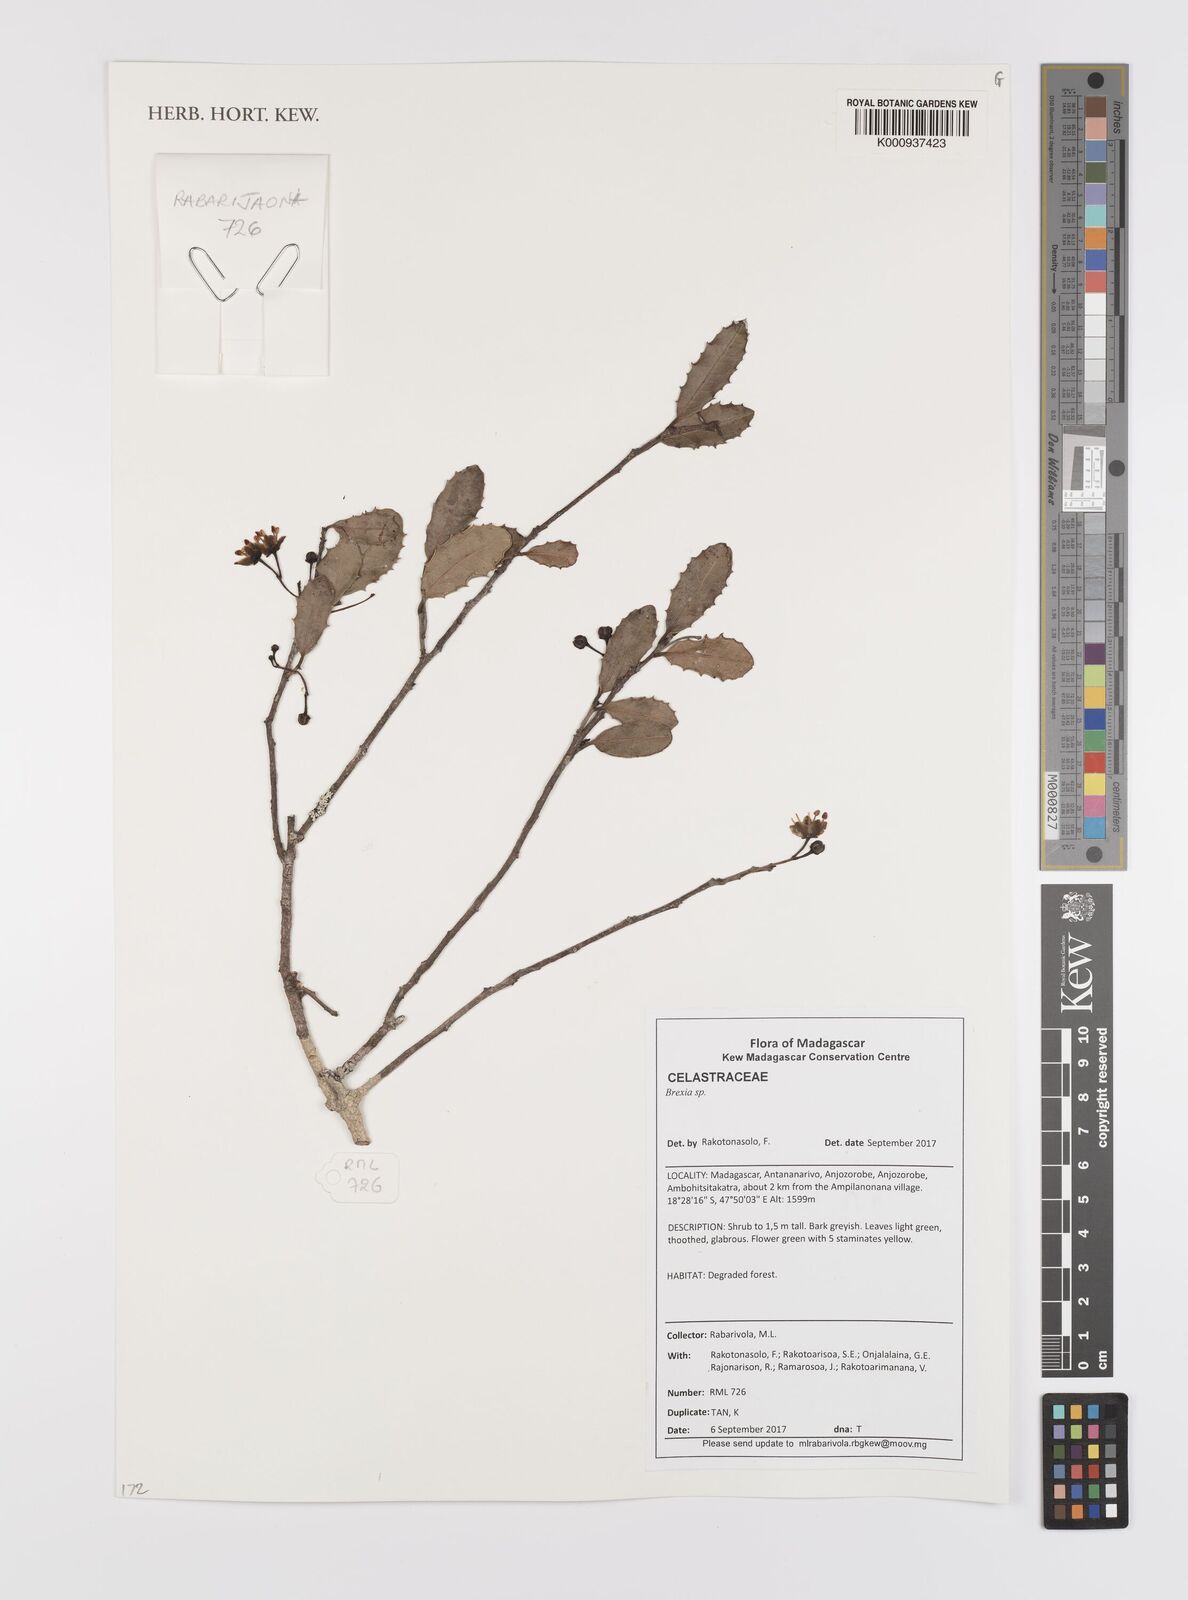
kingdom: Plantae
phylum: Tracheophyta
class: Magnoliopsida
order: Celastrales
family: Celastraceae
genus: Brexia
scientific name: Brexia
